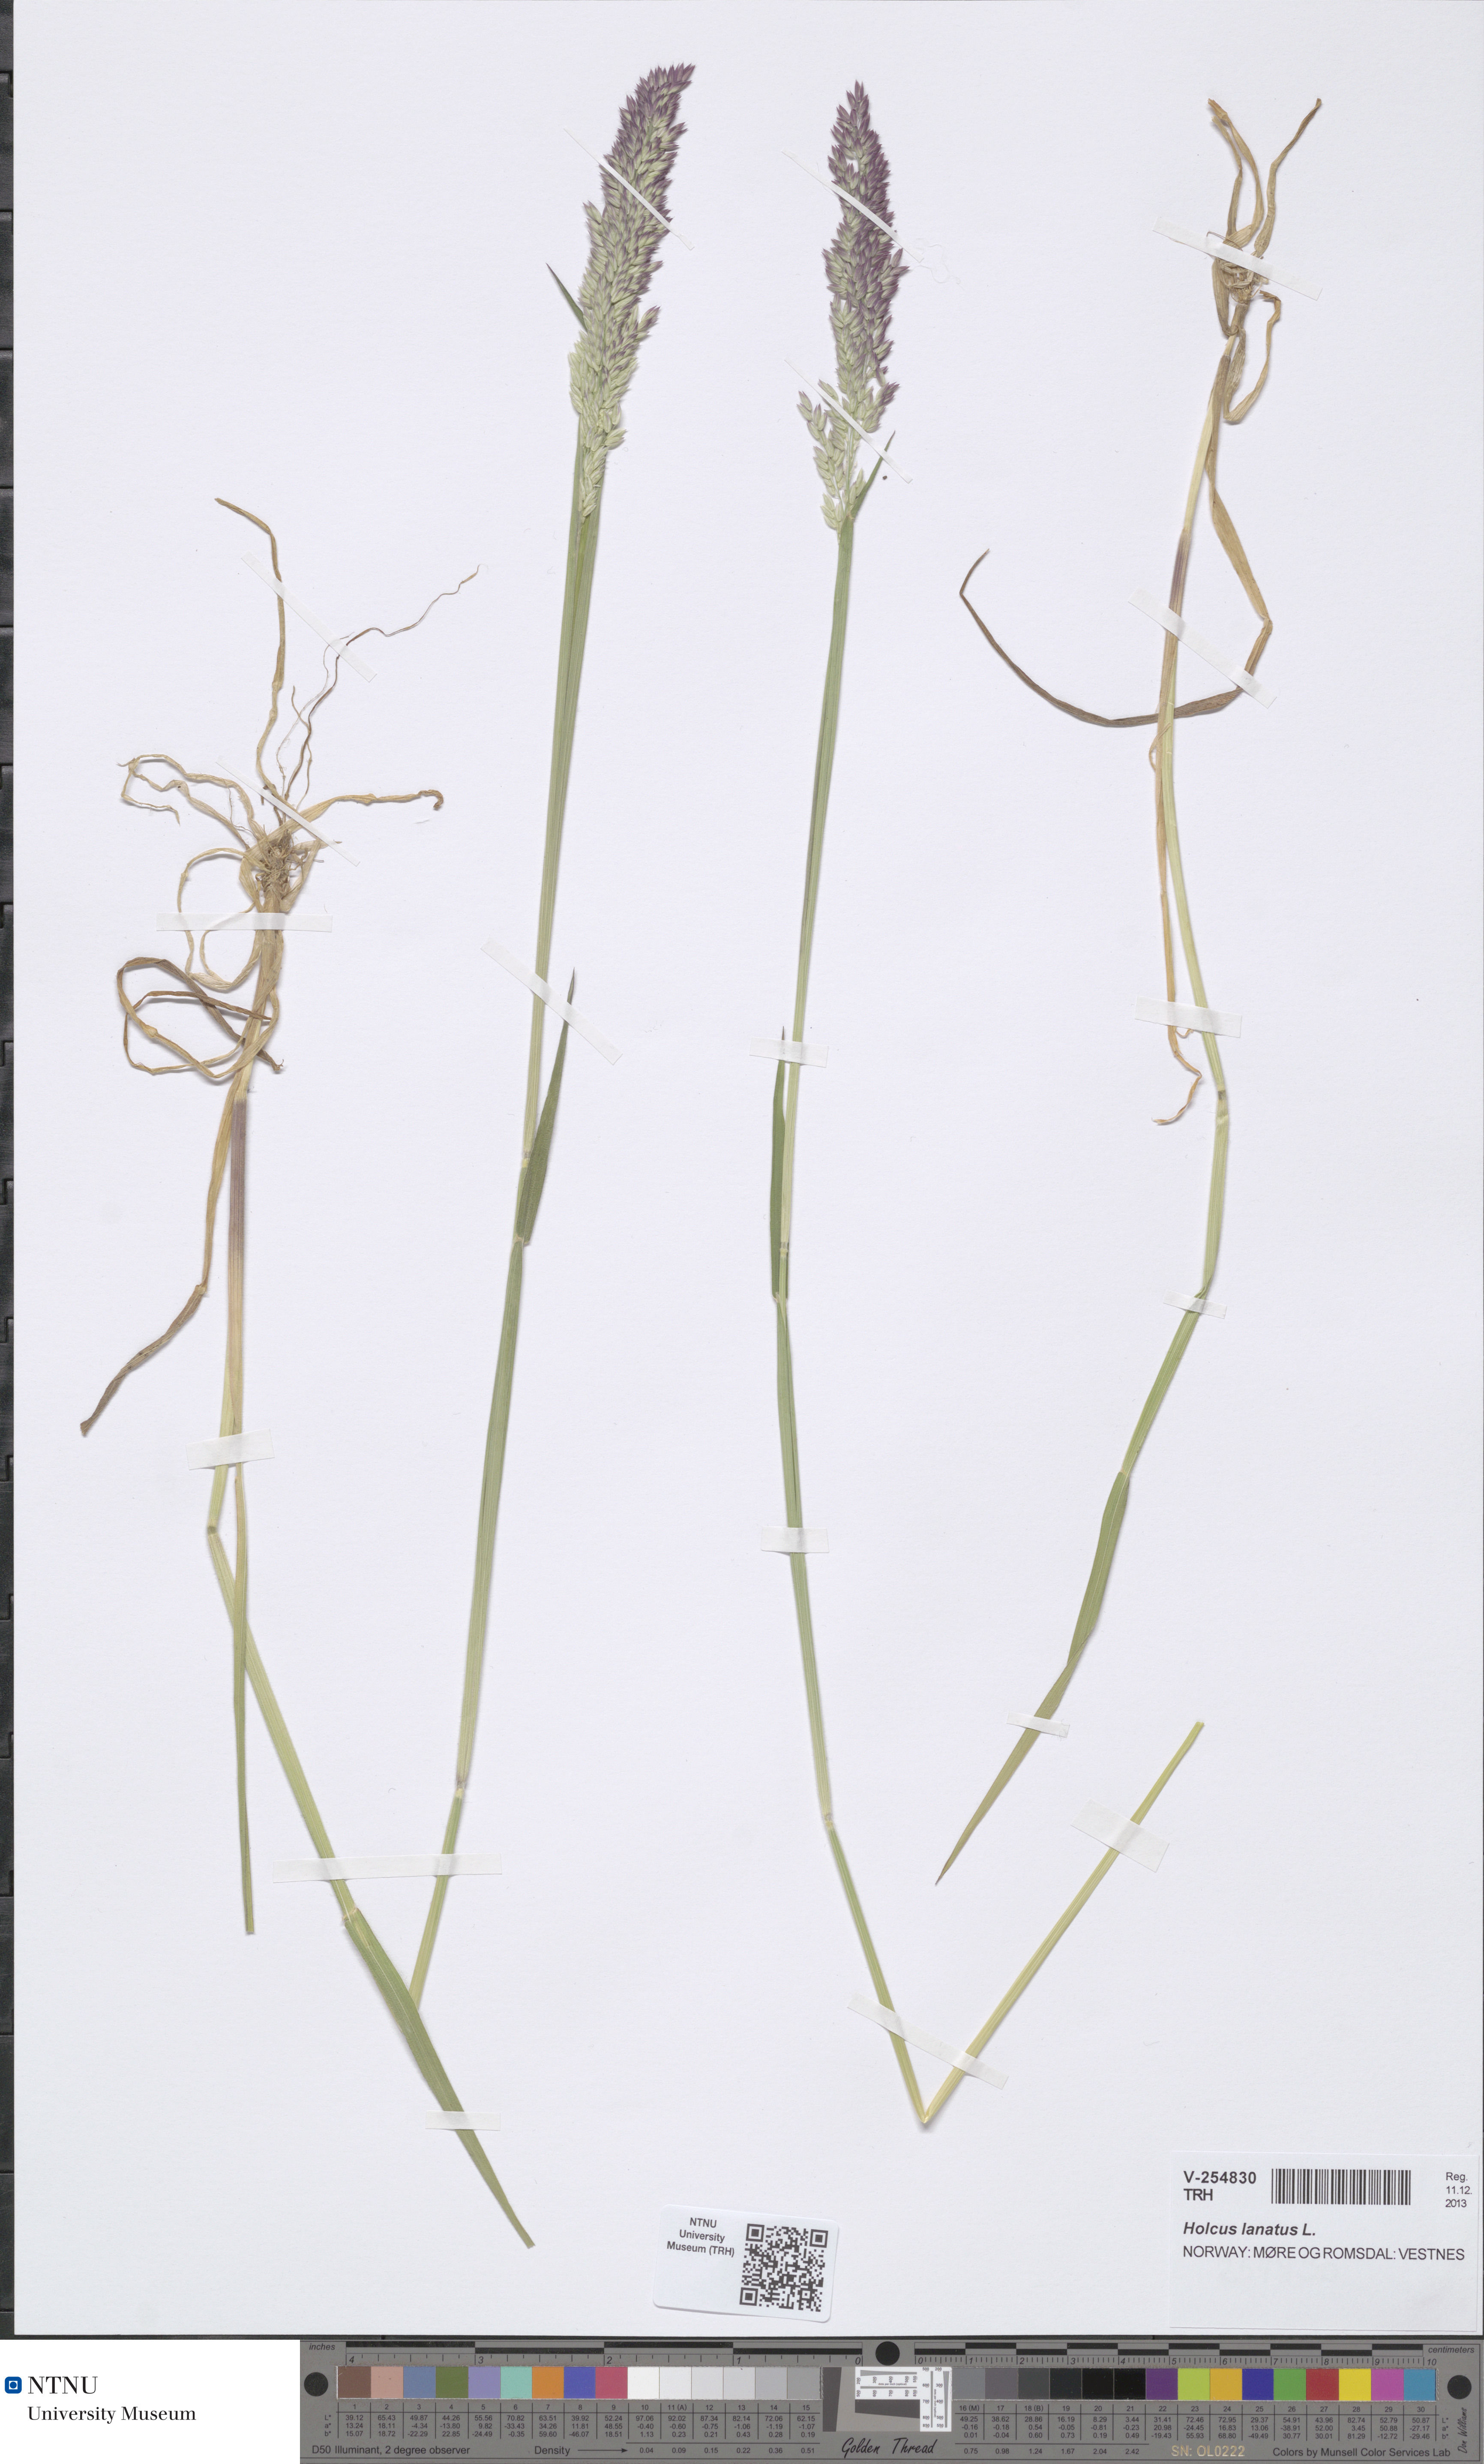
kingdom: Plantae
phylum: Tracheophyta
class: Liliopsida
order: Poales
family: Poaceae
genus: Holcus
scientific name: Holcus lanatus
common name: Yorkshire-fog
